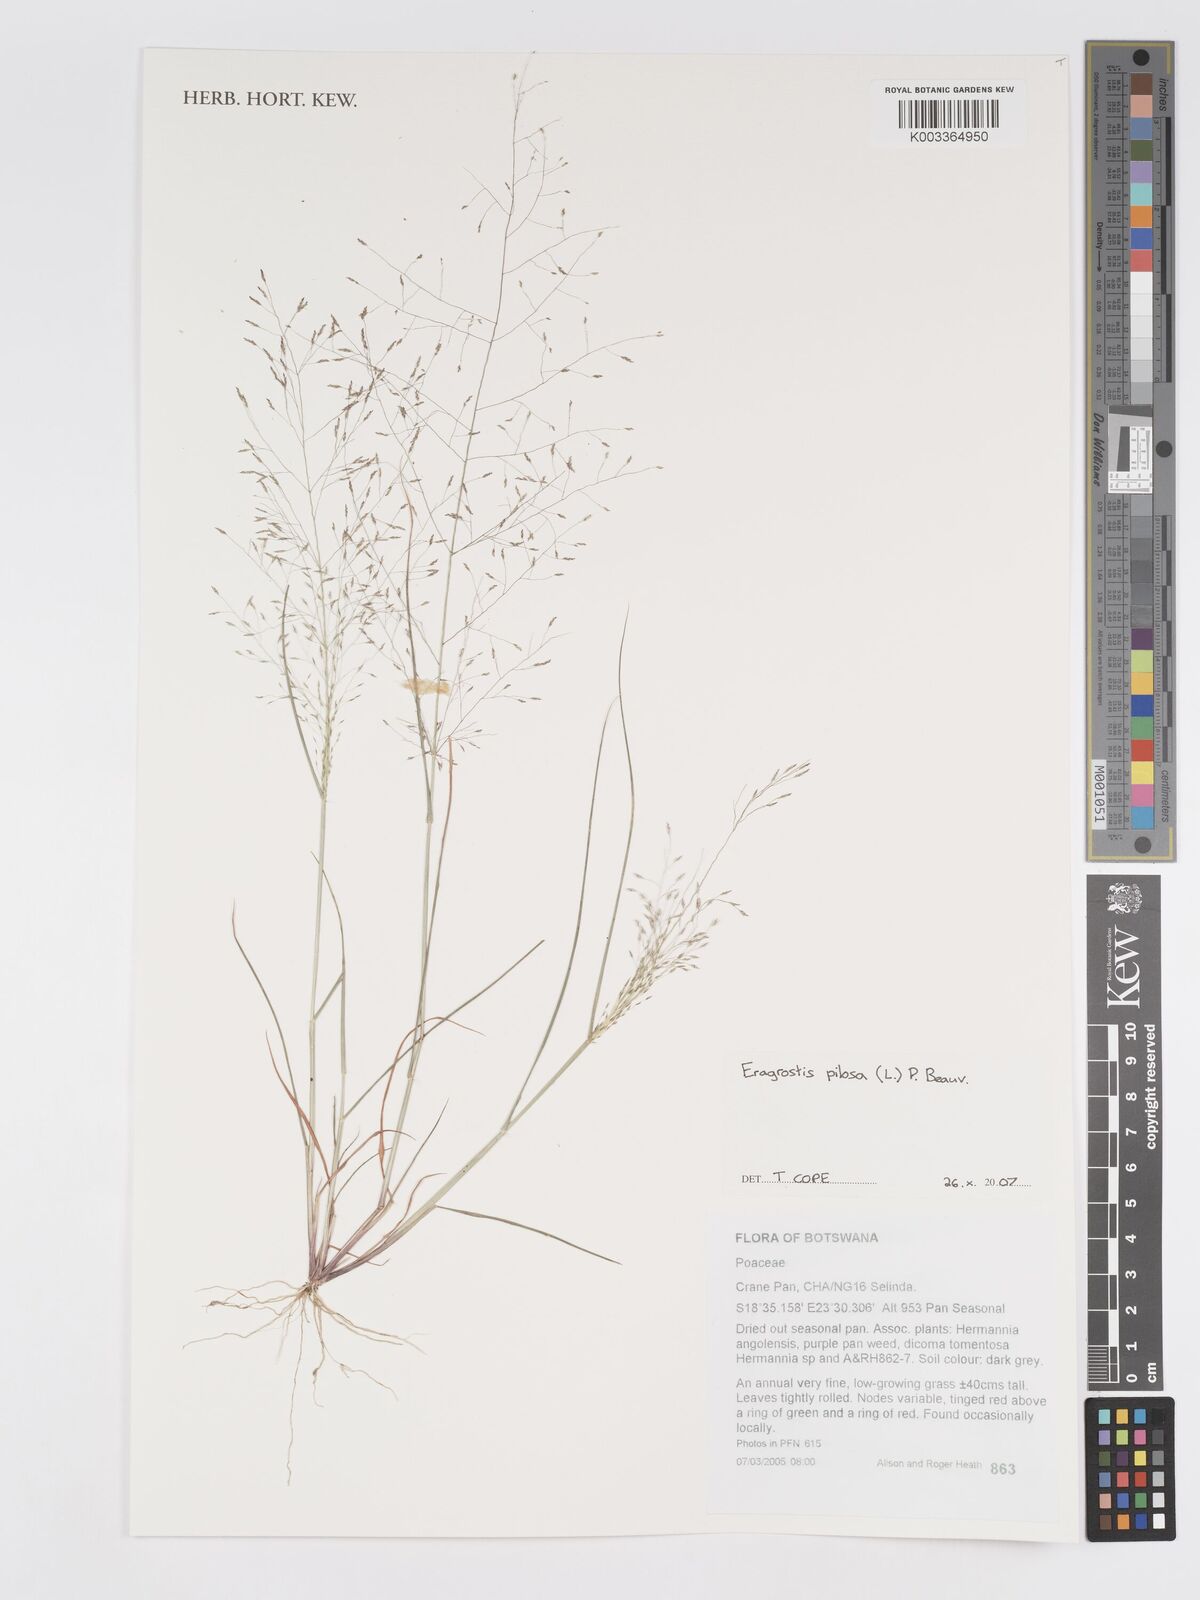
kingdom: Plantae
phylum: Tracheophyta
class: Liliopsida
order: Poales
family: Poaceae
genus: Eragrostis
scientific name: Eragrostis pilosa
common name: Indian lovegrass
